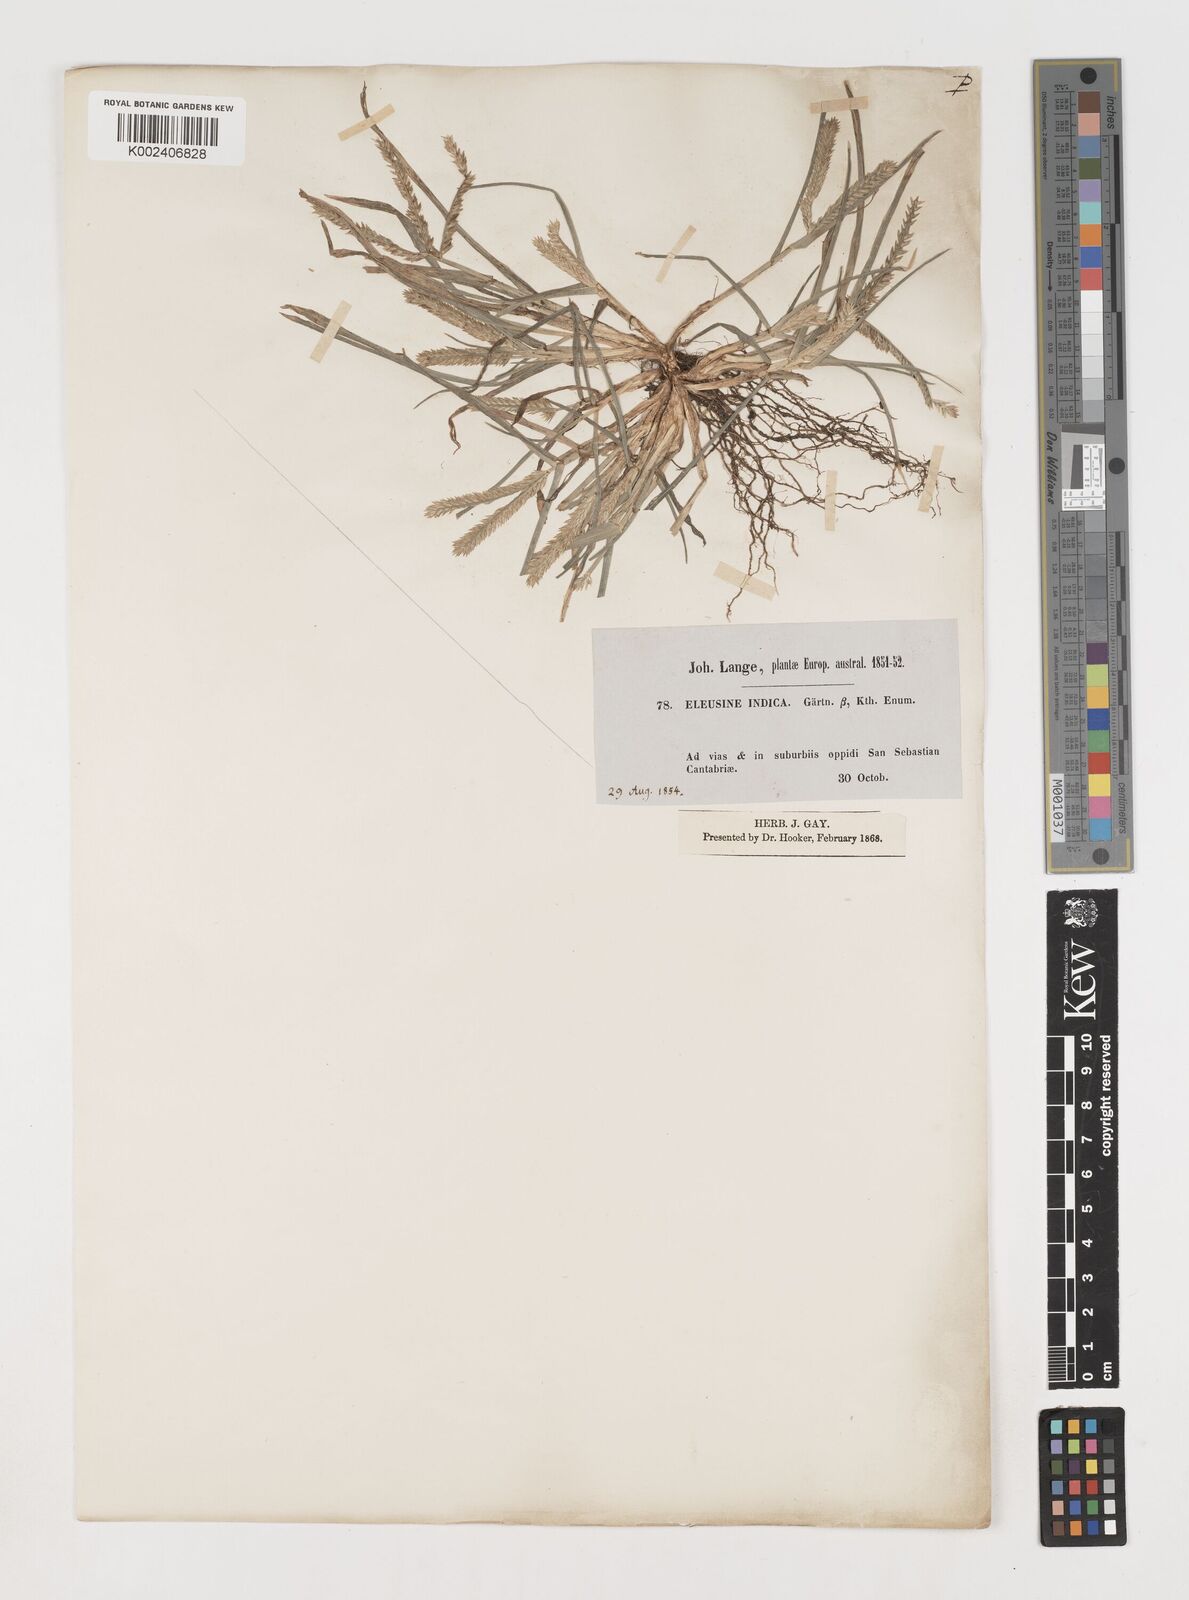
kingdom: Plantae
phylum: Tracheophyta
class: Liliopsida
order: Poales
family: Poaceae
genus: Eleusine
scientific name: Eleusine indica
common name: Yard-grass
